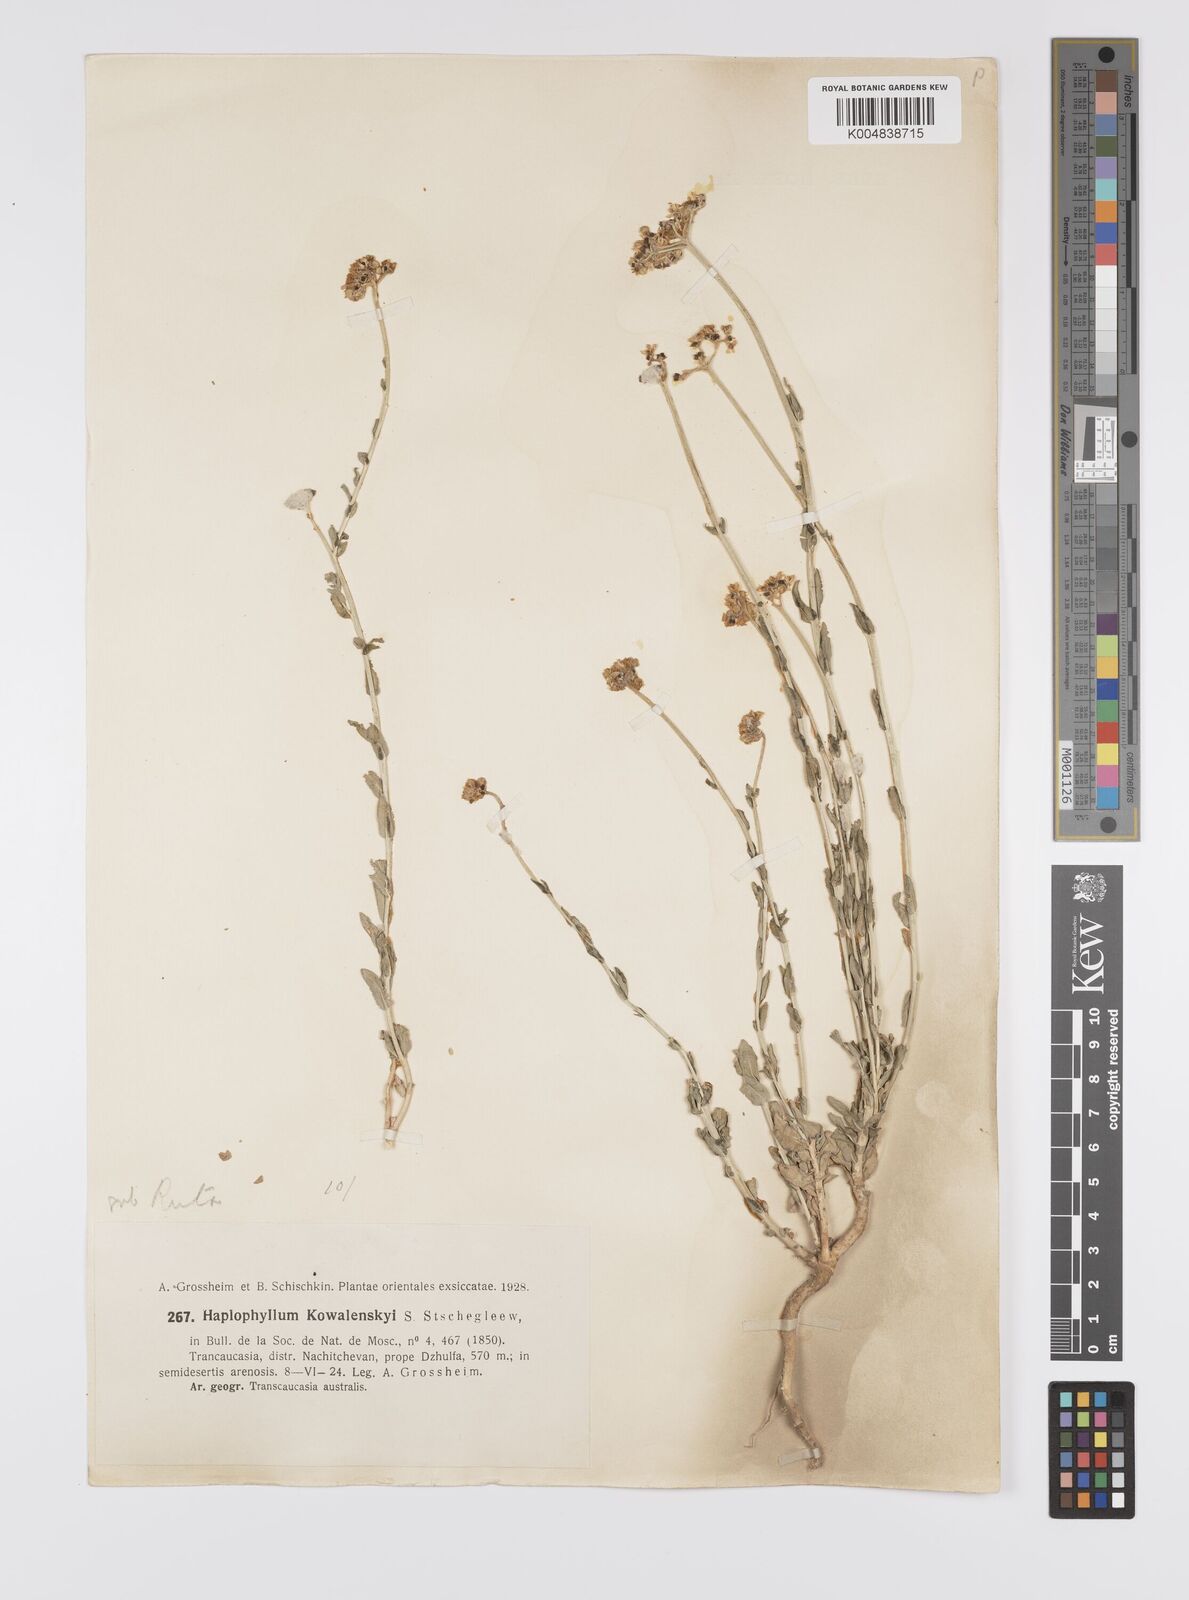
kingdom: Plantae
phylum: Tracheophyta
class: Magnoliopsida
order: Sapindales
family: Rutaceae
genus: Haplophyllum
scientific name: Haplophyllum kowalenskyi
